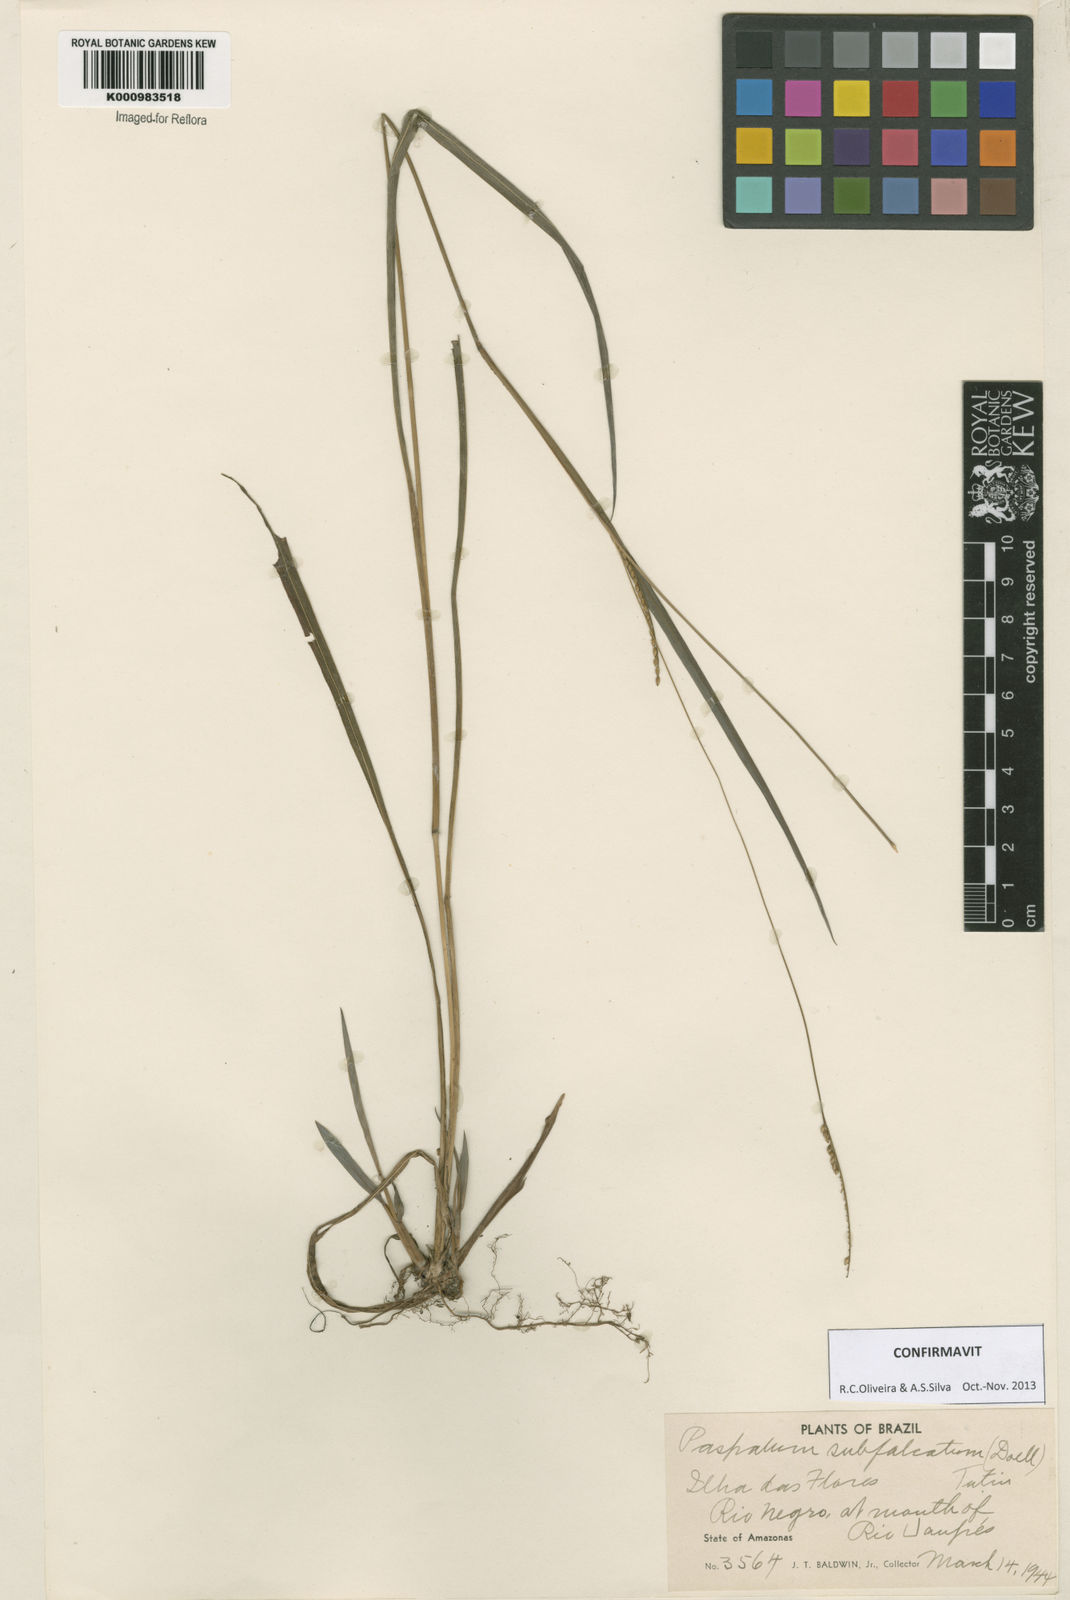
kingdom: Plantae
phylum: Tracheophyta
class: Liliopsida
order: Poales
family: Poaceae
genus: Paspalum
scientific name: Paspalum
